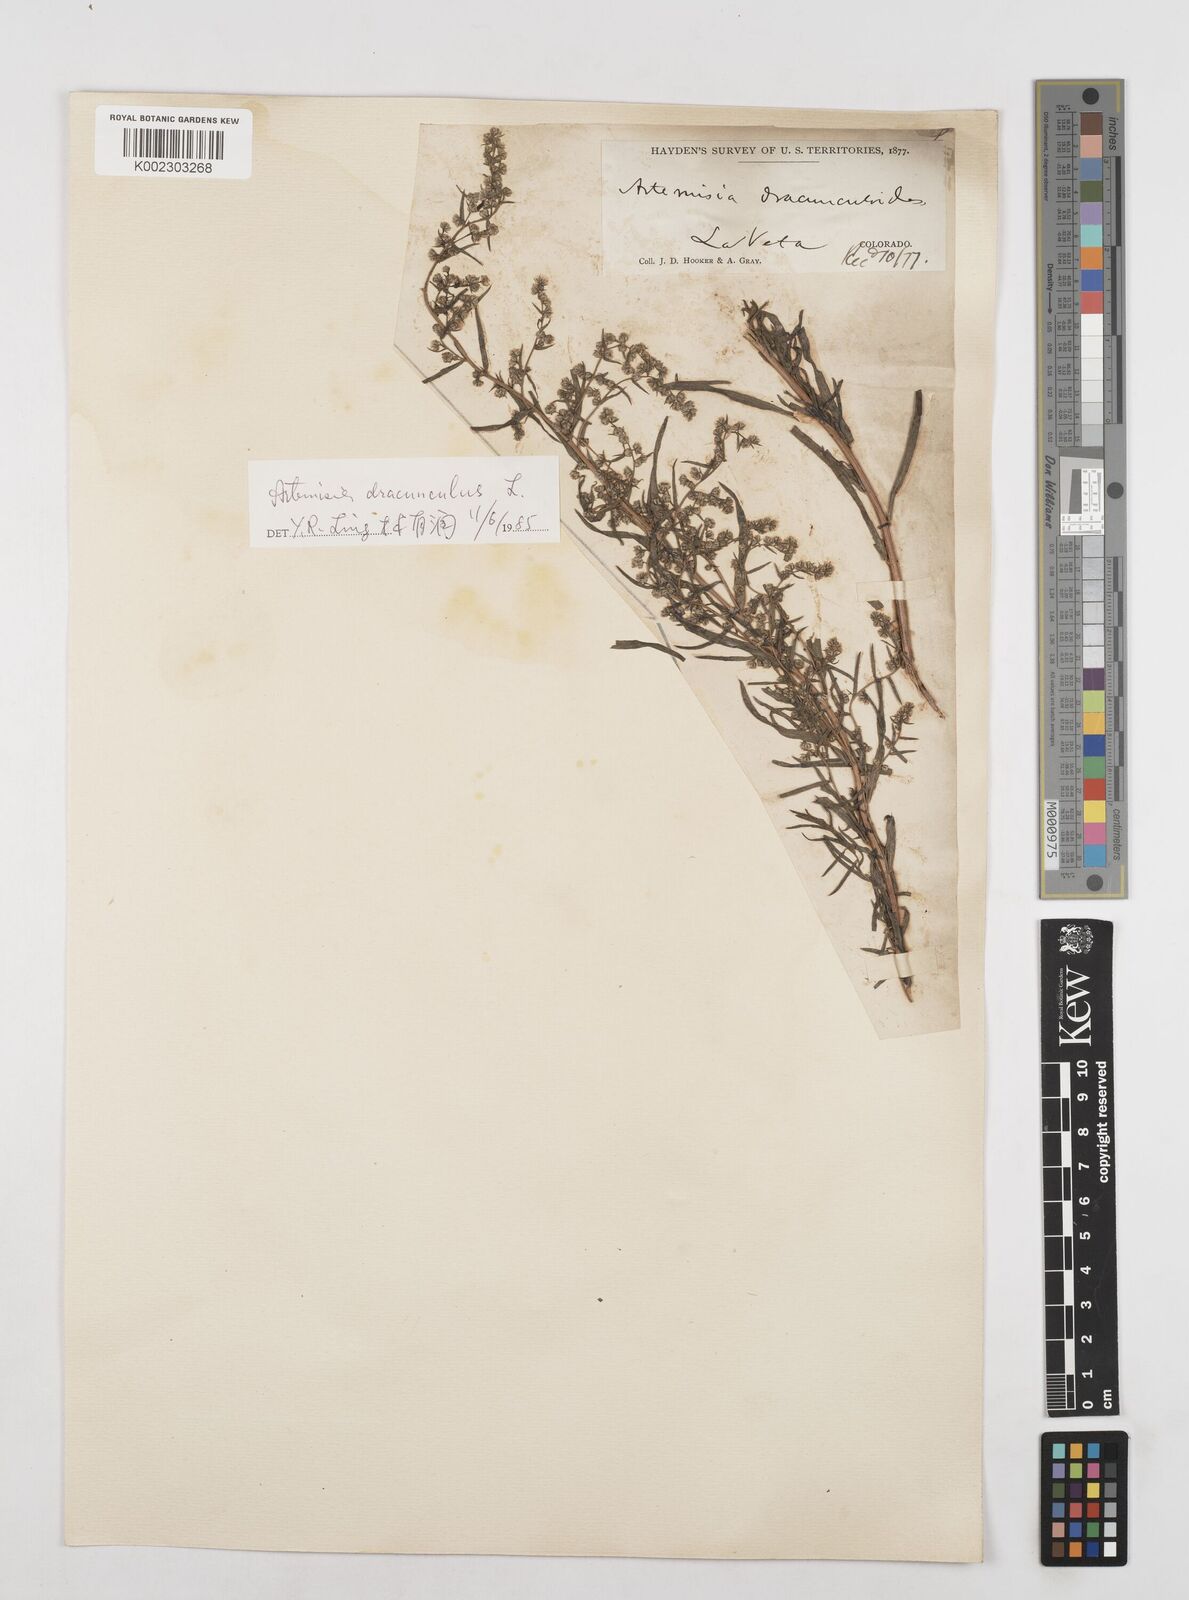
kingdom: Plantae
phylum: Tracheophyta
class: Magnoliopsida
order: Asterales
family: Asteraceae
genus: Artemisia
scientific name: Artemisia dracunculus
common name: Tarragon
